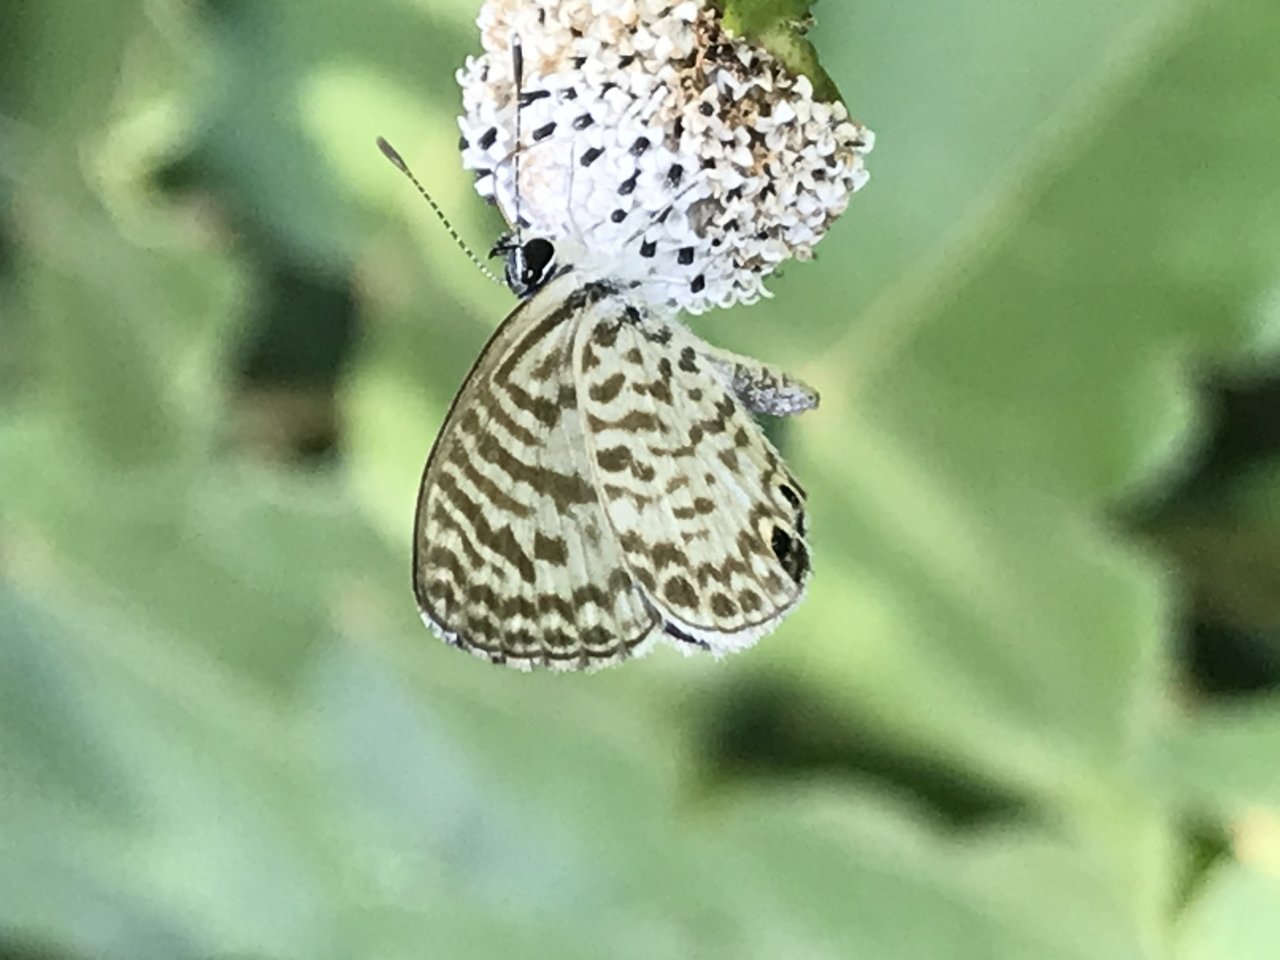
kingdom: Animalia
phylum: Arthropoda
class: Insecta
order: Lepidoptera
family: Lycaenidae
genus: Leptotes
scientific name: Leptotes cassius
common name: Cassius Blue
